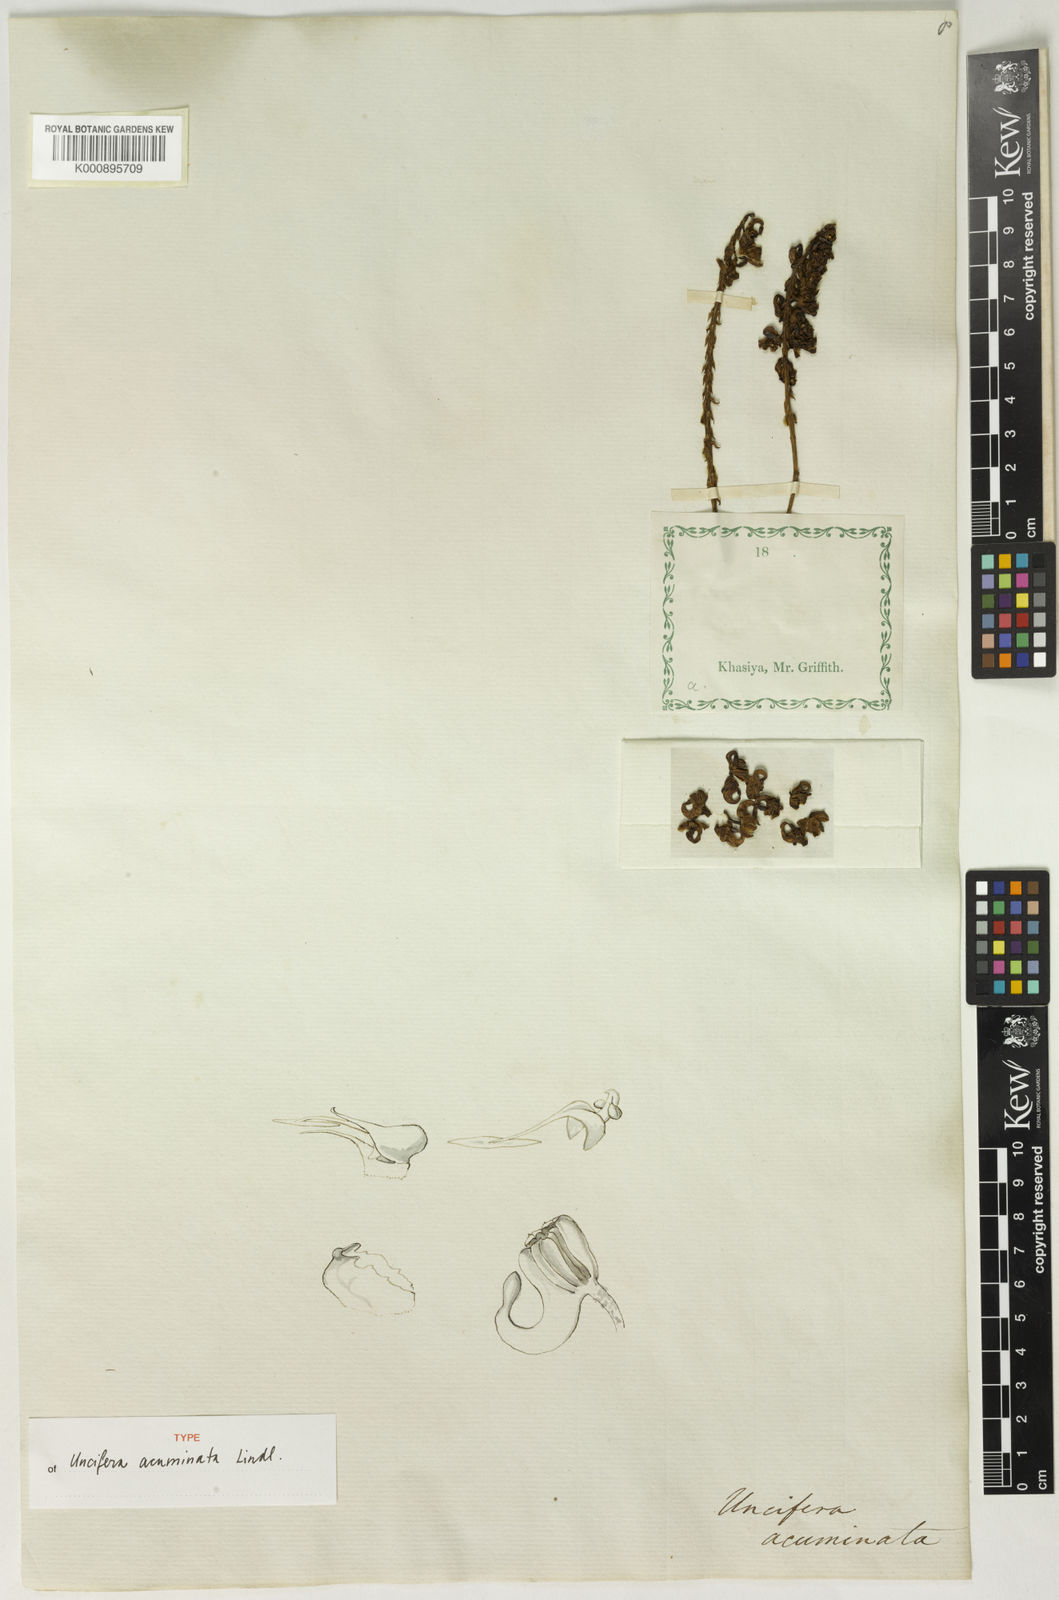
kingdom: Plantae
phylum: Tracheophyta
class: Liliopsida
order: Asparagales
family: Orchidaceae
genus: Uncifera
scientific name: Uncifera acuminata
